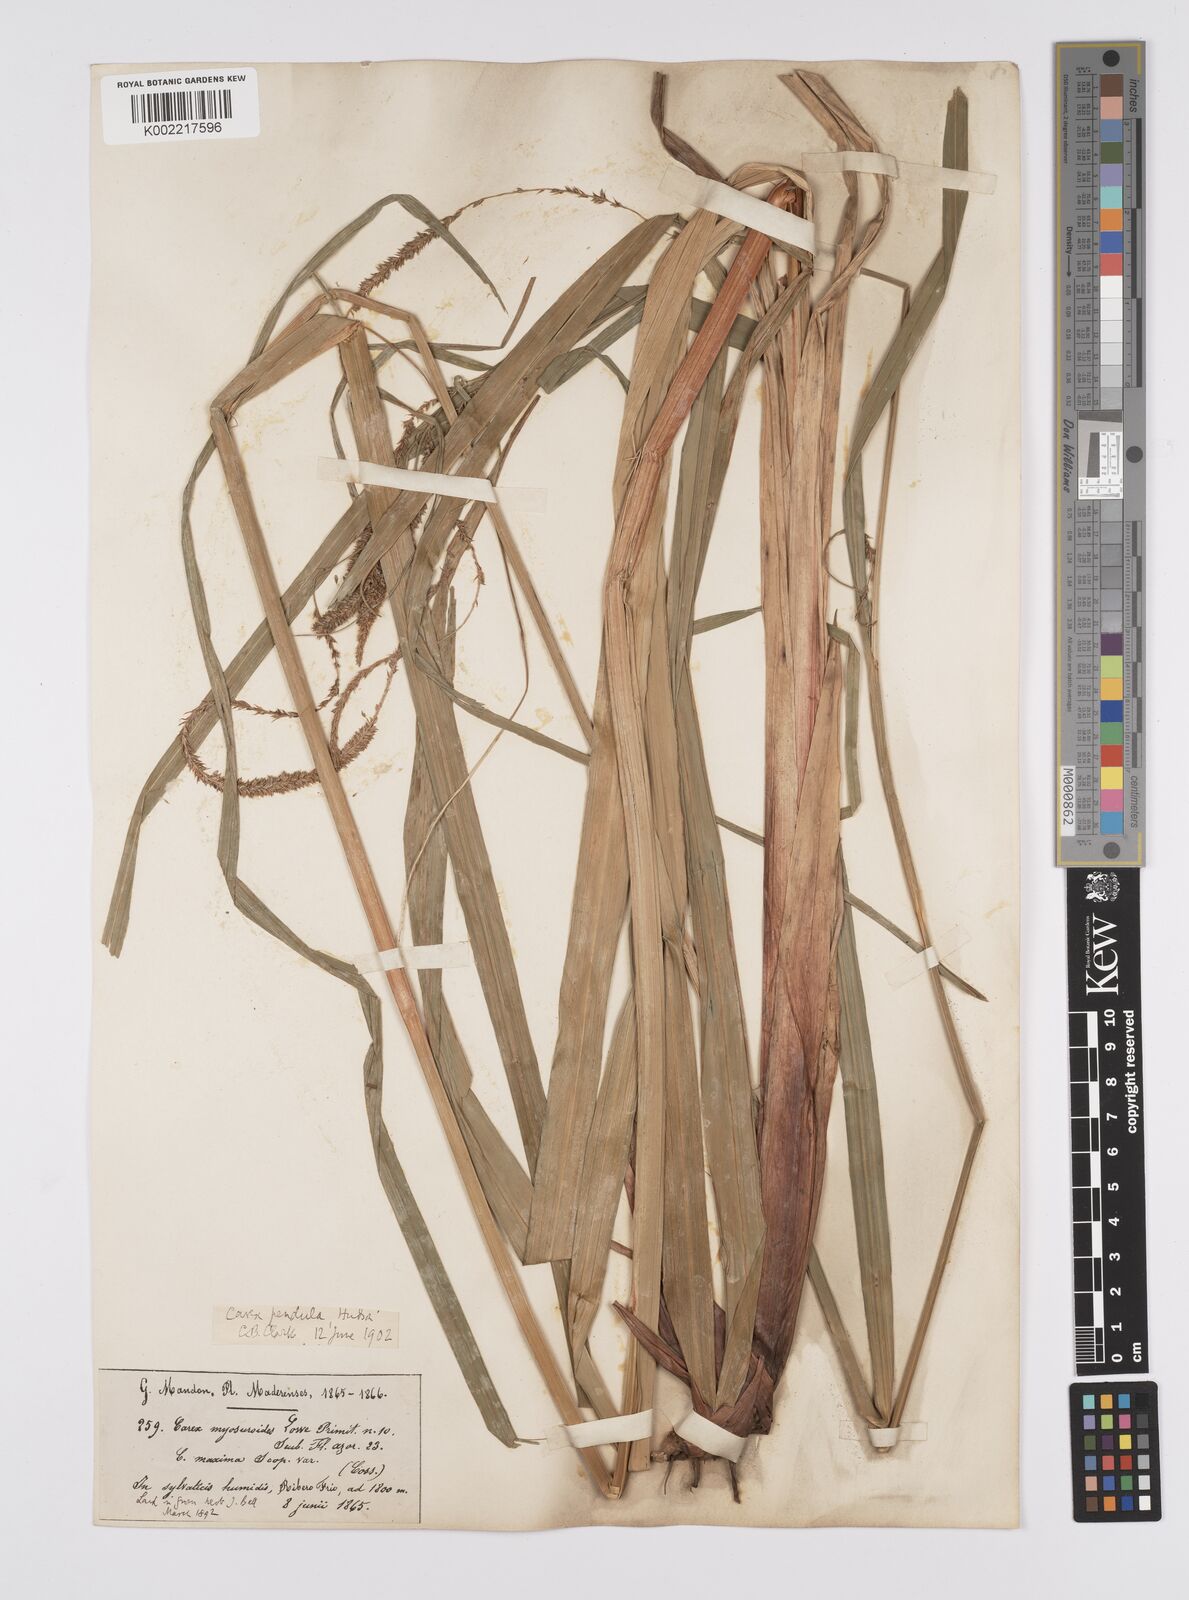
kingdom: Plantae
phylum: Tracheophyta
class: Liliopsida
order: Poales
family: Cyperaceae
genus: Carex
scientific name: Carex pendula
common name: Pendulous sedge
